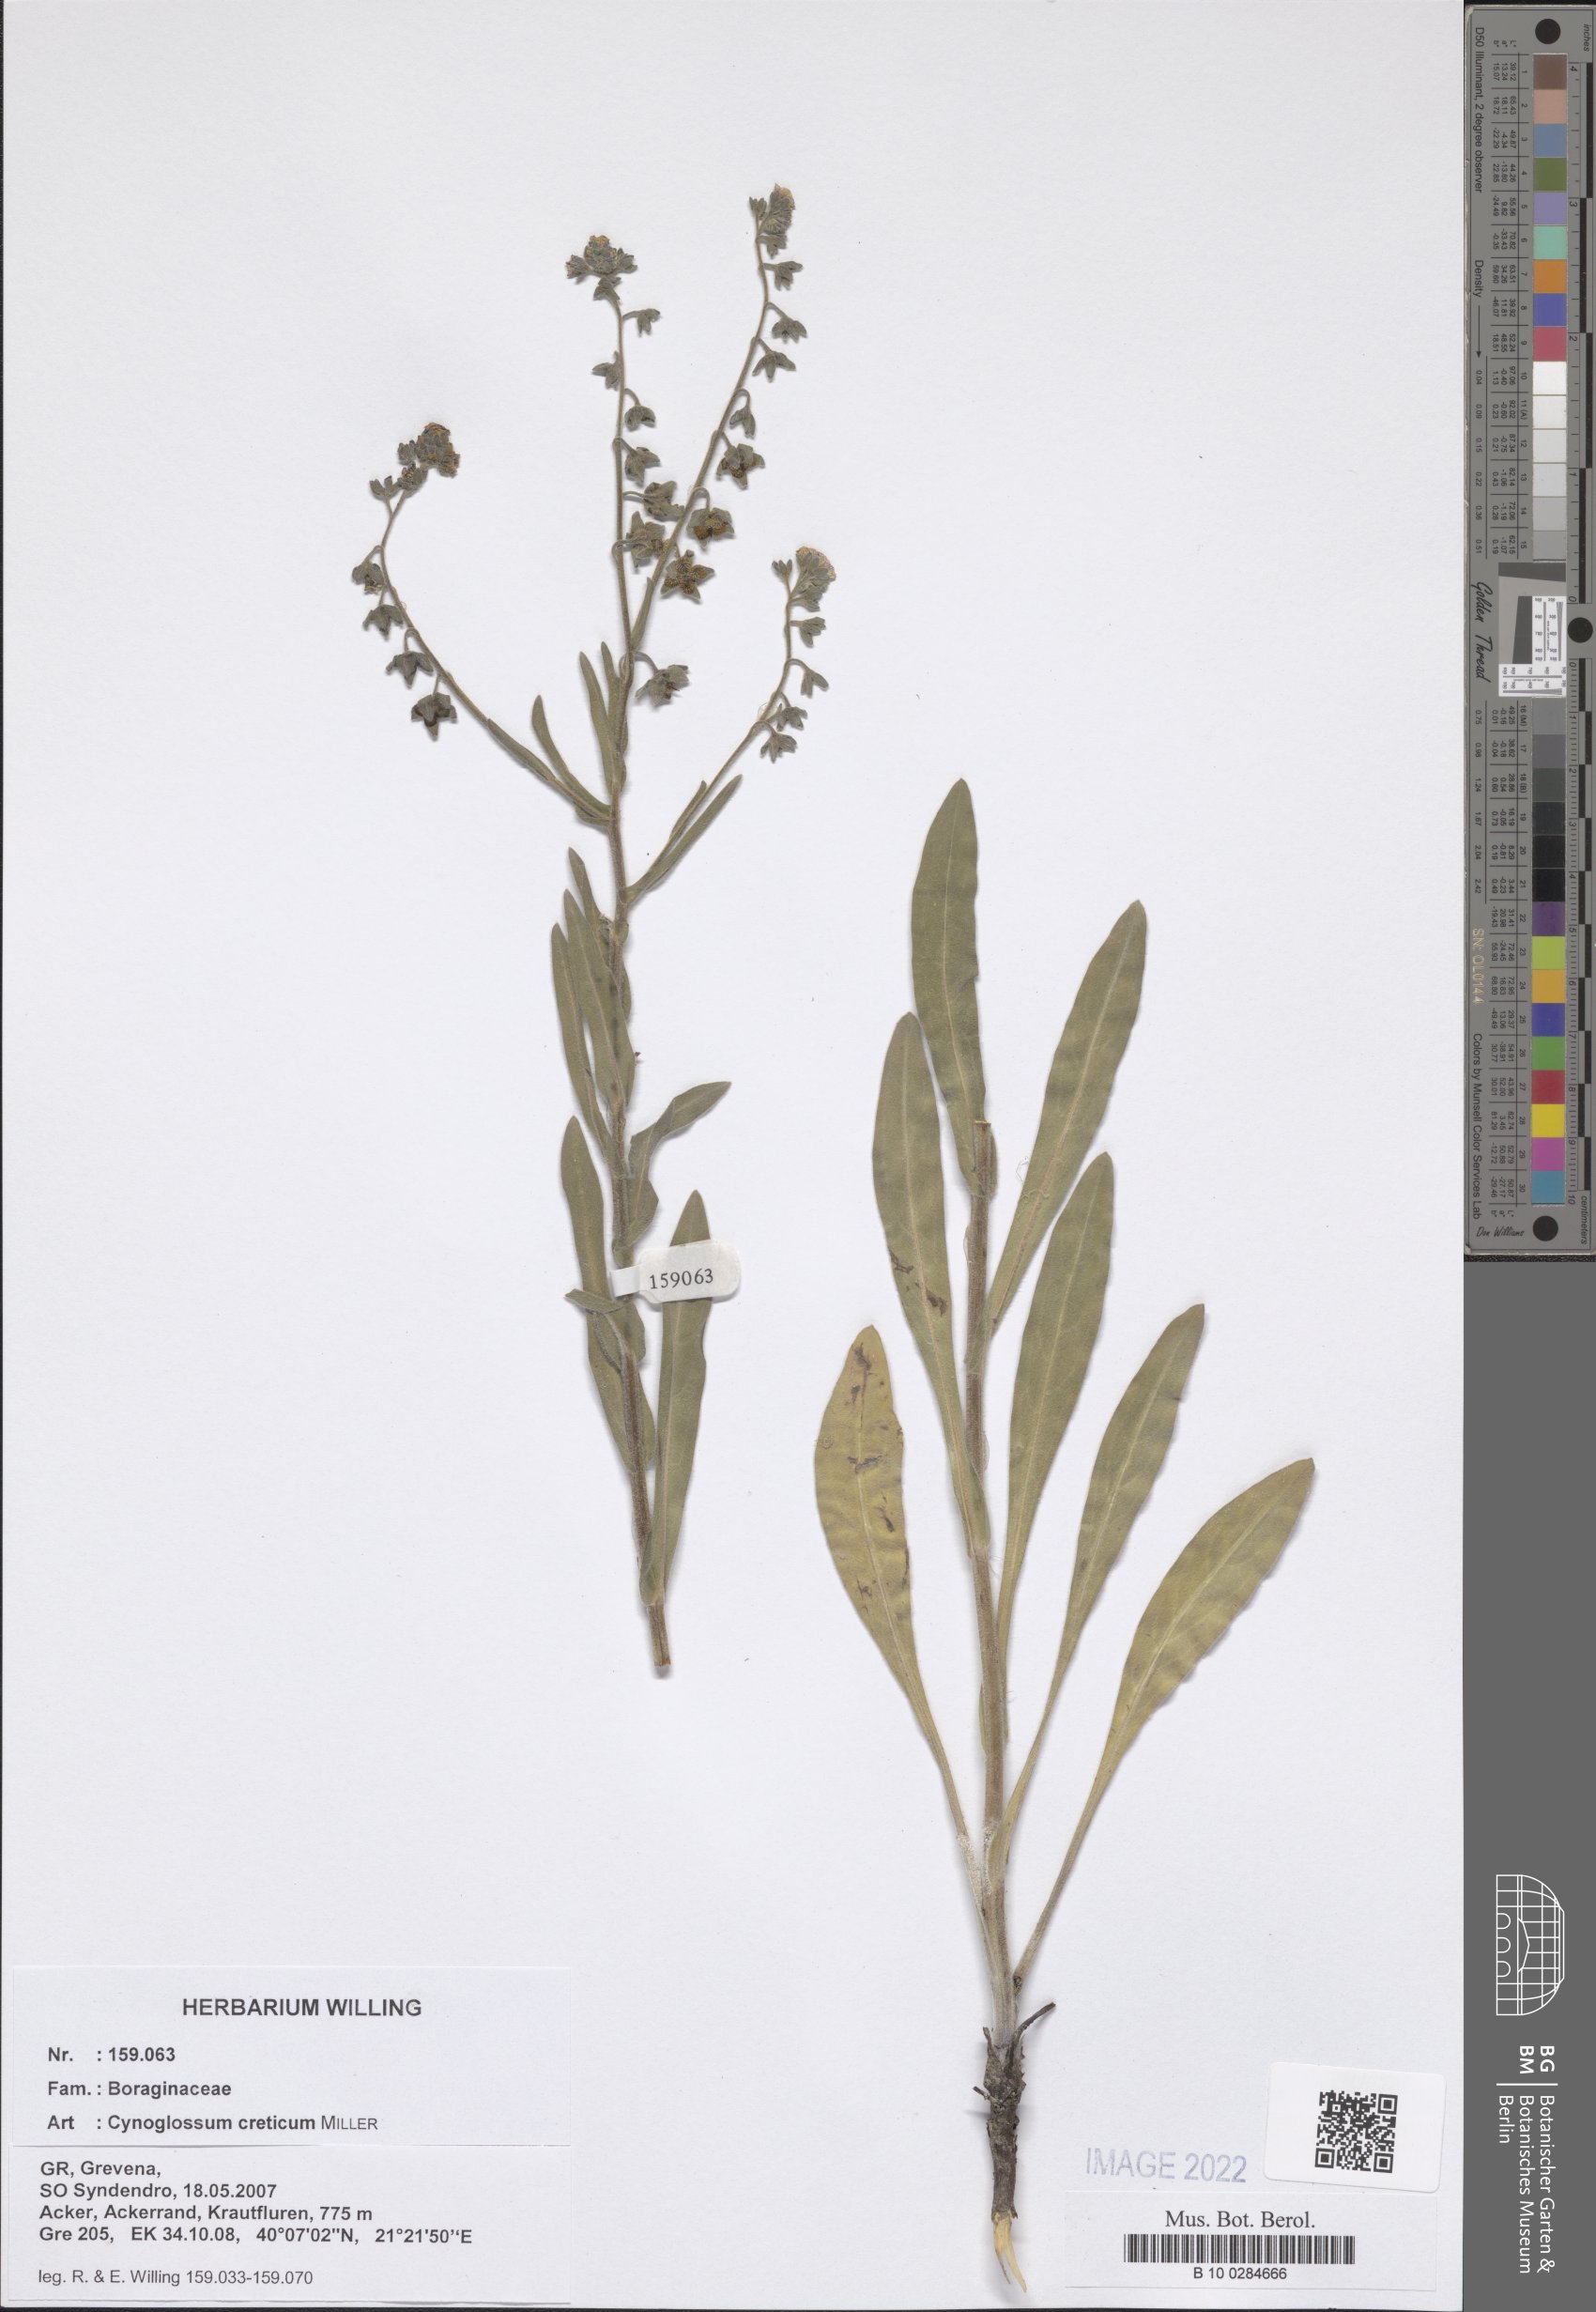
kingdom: Plantae
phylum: Tracheophyta
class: Magnoliopsida
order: Boraginales
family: Boraginaceae
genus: Cynoglossum
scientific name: Cynoglossum creticum
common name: Blue hound's tongue
